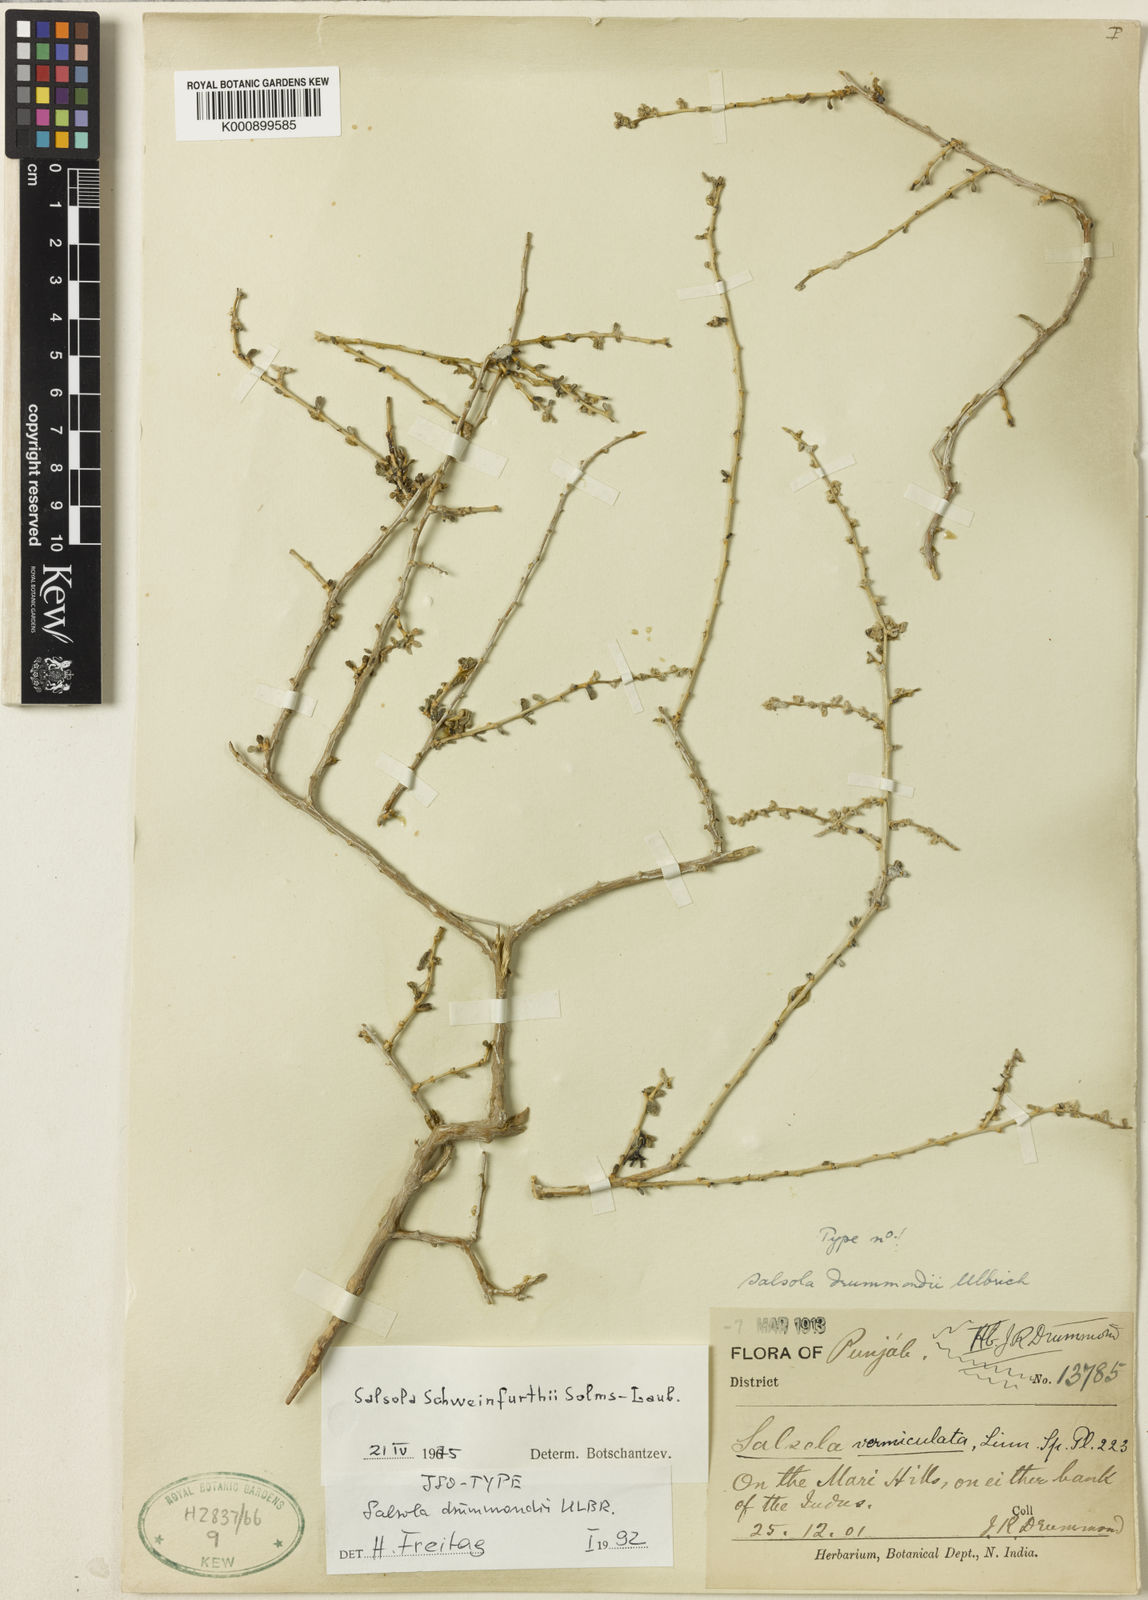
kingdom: Plantae
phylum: Tracheophyta
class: Magnoliopsida
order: Caryophyllales
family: Amaranthaceae
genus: Soda
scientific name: Soda drummondii
